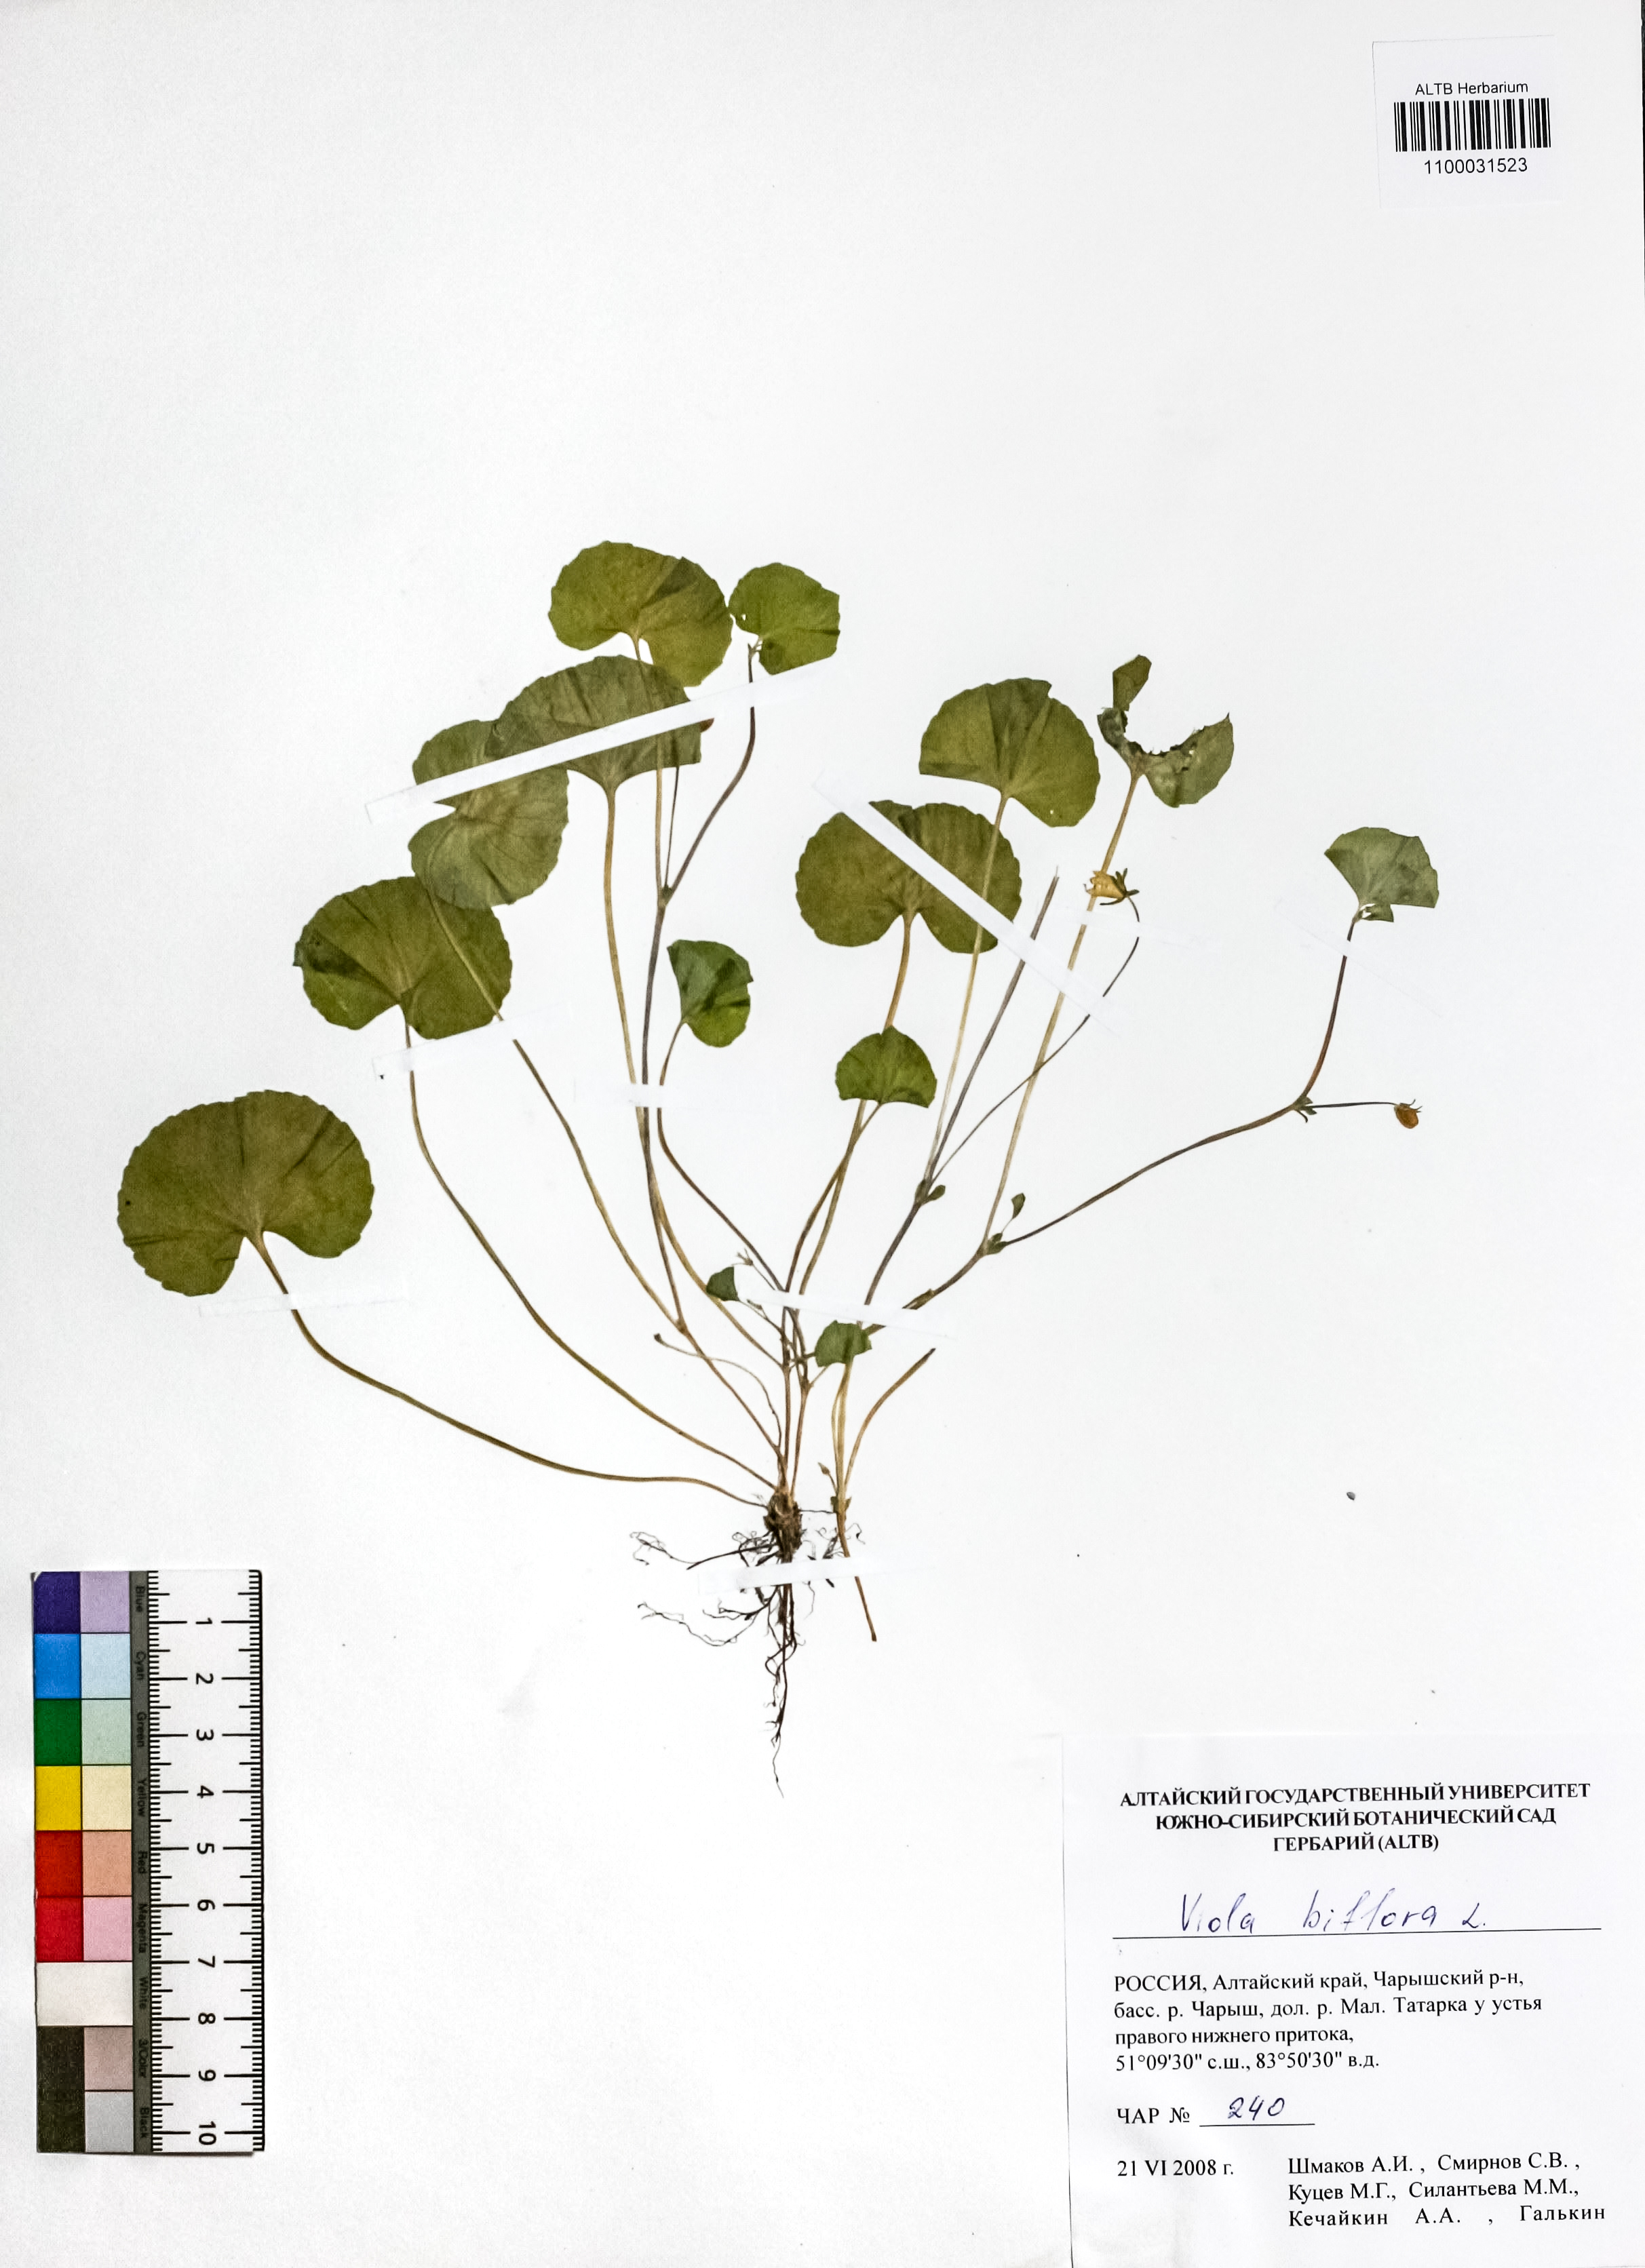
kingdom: Plantae
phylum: Tracheophyta
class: Magnoliopsida
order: Malpighiales
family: Violaceae
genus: Viola
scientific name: Viola biflora
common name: Alpine yellow violet
